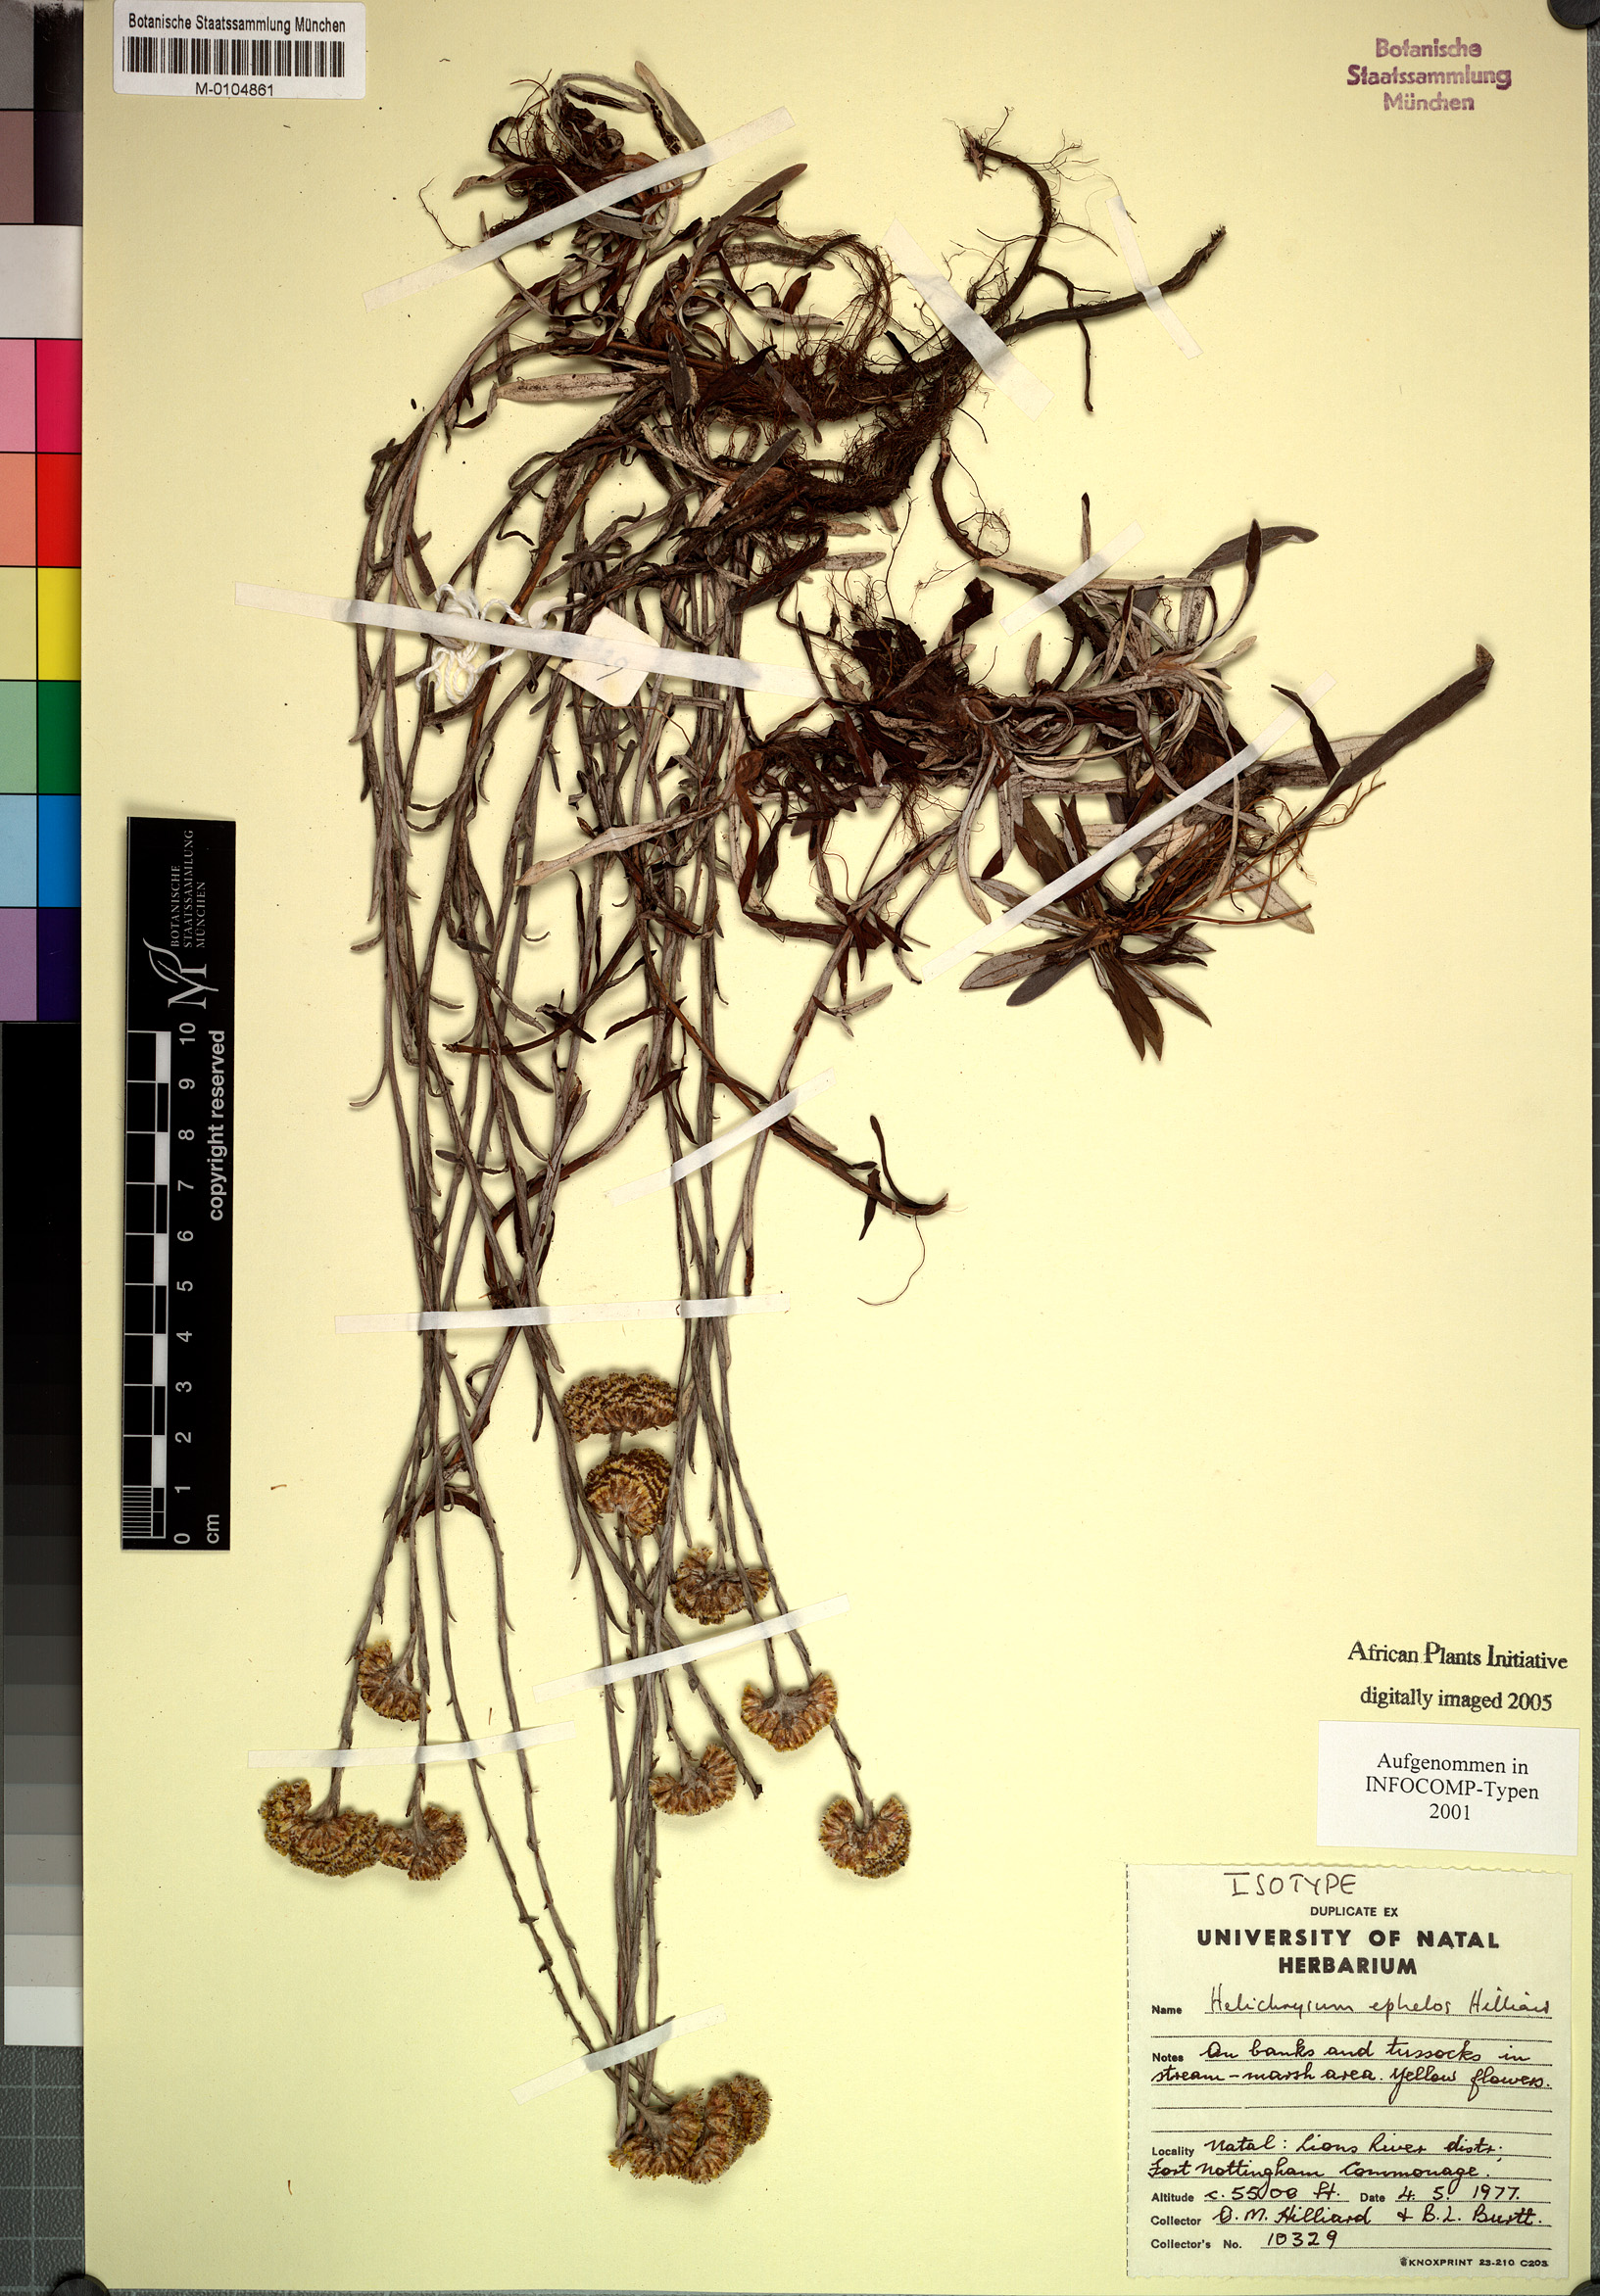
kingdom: Plantae
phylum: Tracheophyta
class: Magnoliopsida
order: Asterales
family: Asteraceae
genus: Helichrysum
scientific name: Helichrysum ephelos
